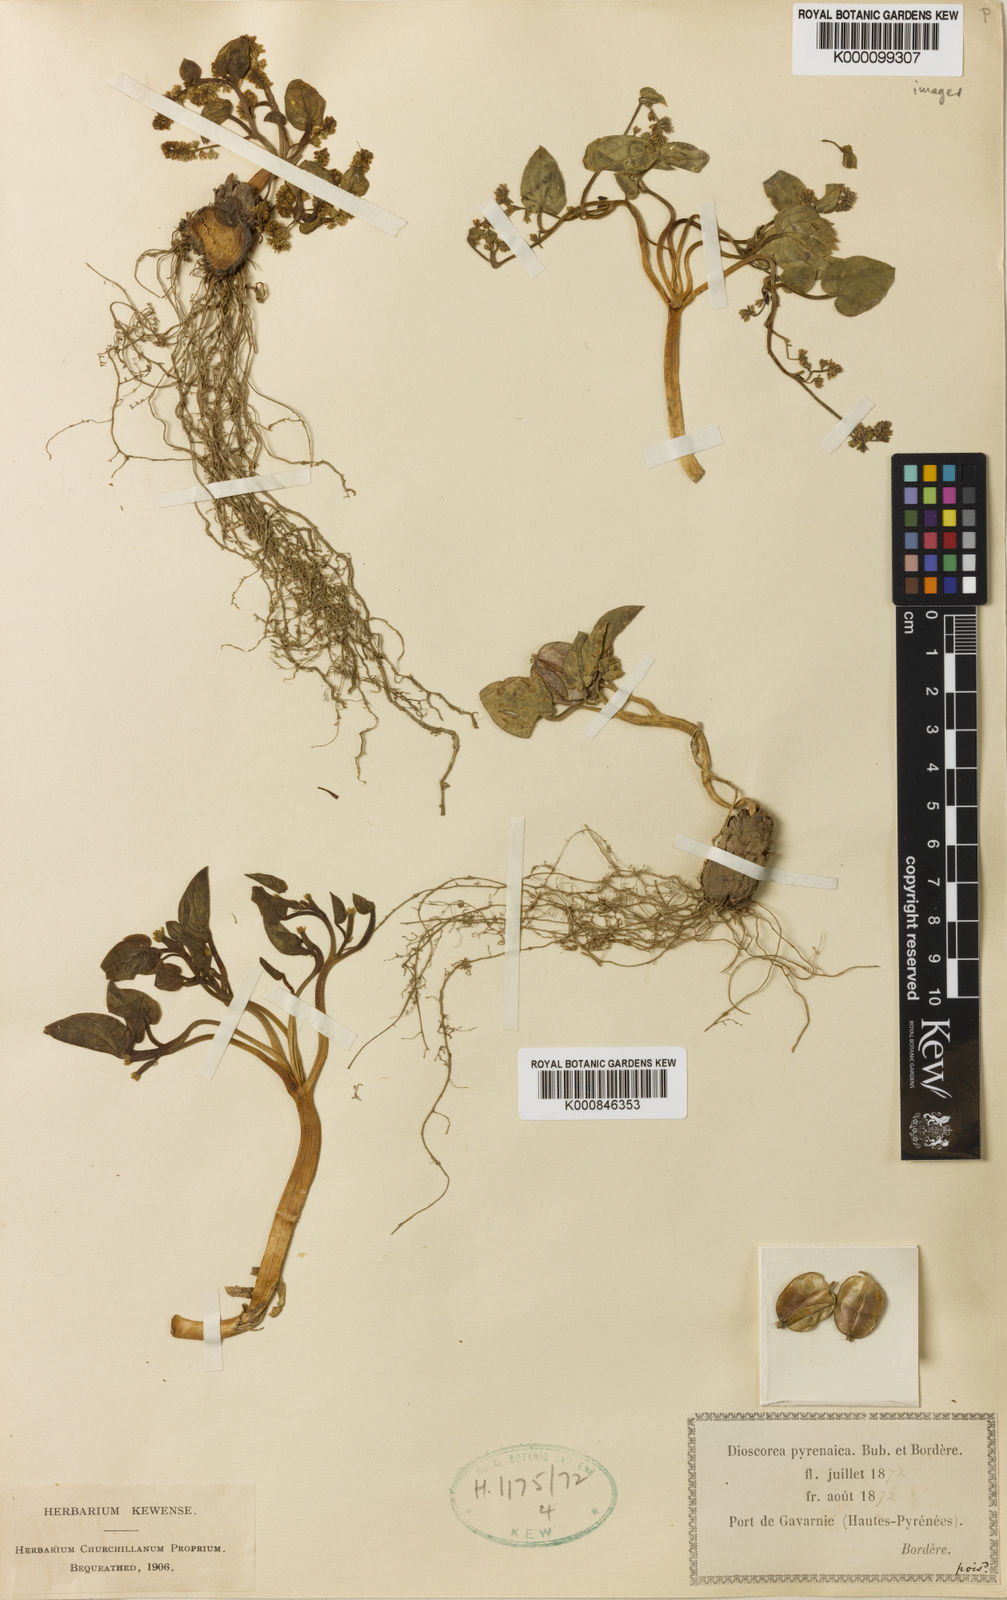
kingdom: Plantae
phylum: Tracheophyta
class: Liliopsida
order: Dioscoreales
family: Dioscoreaceae
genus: Dioscorea
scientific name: Dioscorea
